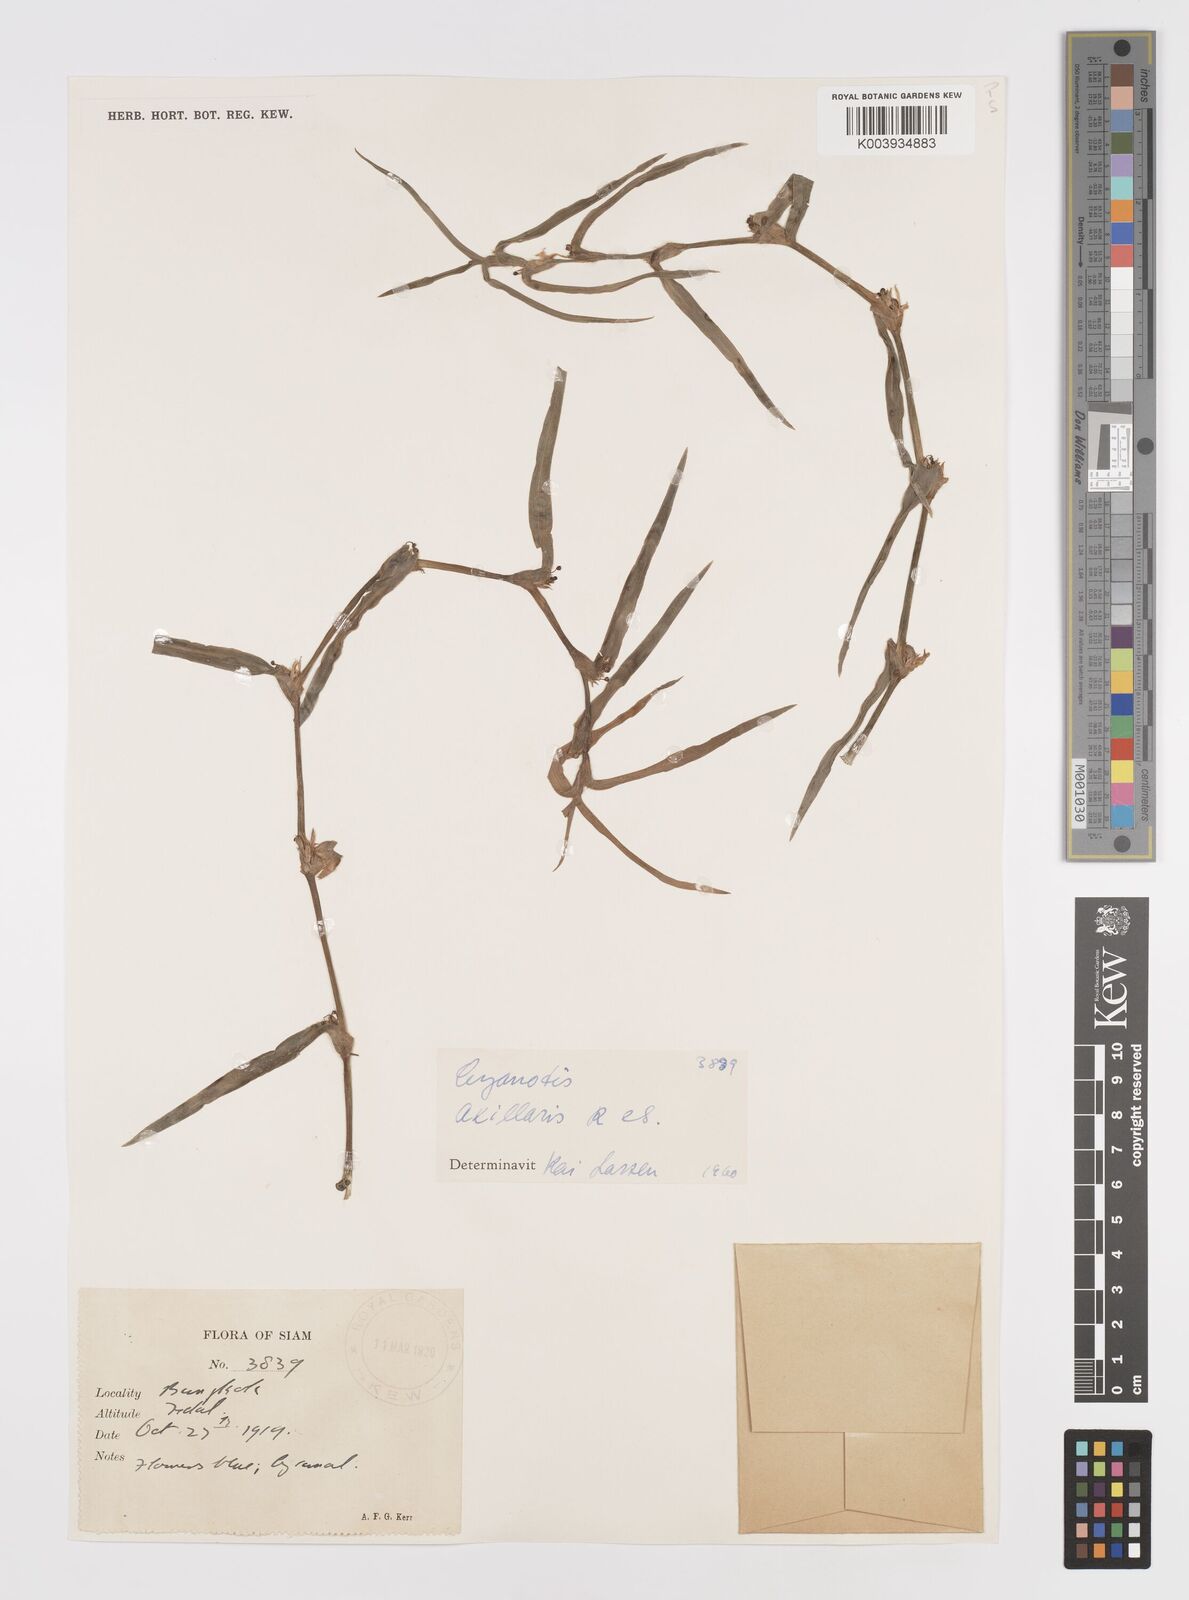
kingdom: Plantae
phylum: Tracheophyta
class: Liliopsida
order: Commelinales
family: Commelinaceae
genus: Cyanotis
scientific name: Cyanotis axillaris
